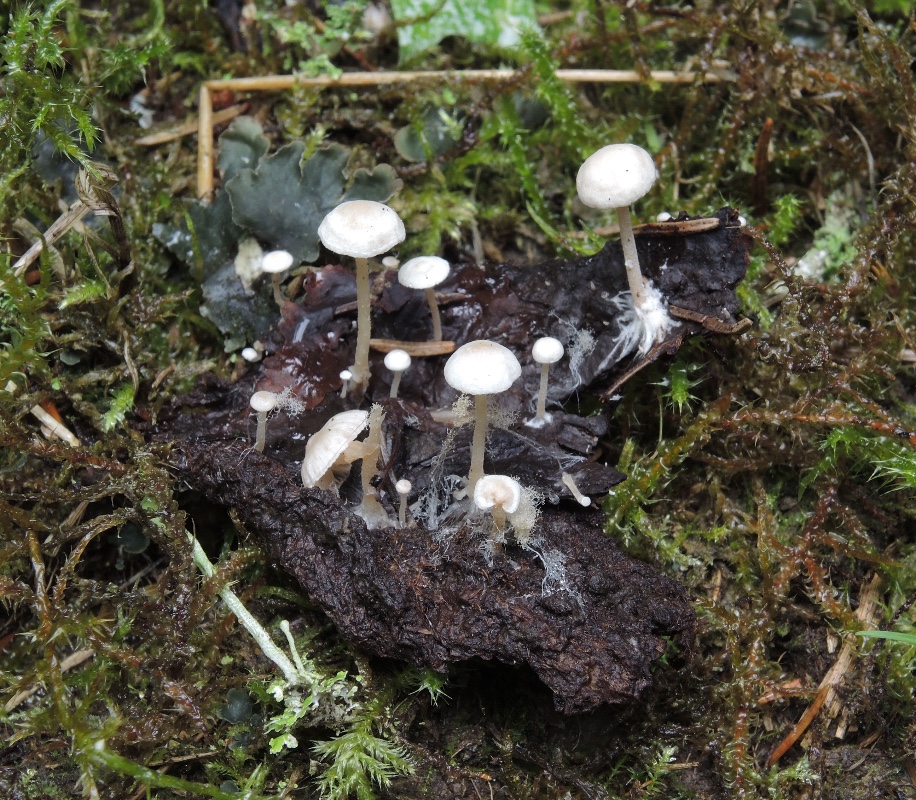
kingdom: Fungi
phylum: Basidiomycota
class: Agaricomycetes
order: Agaricales
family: Tricholomataceae
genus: Collybia
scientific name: Collybia cirrhata
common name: silke-lighat
